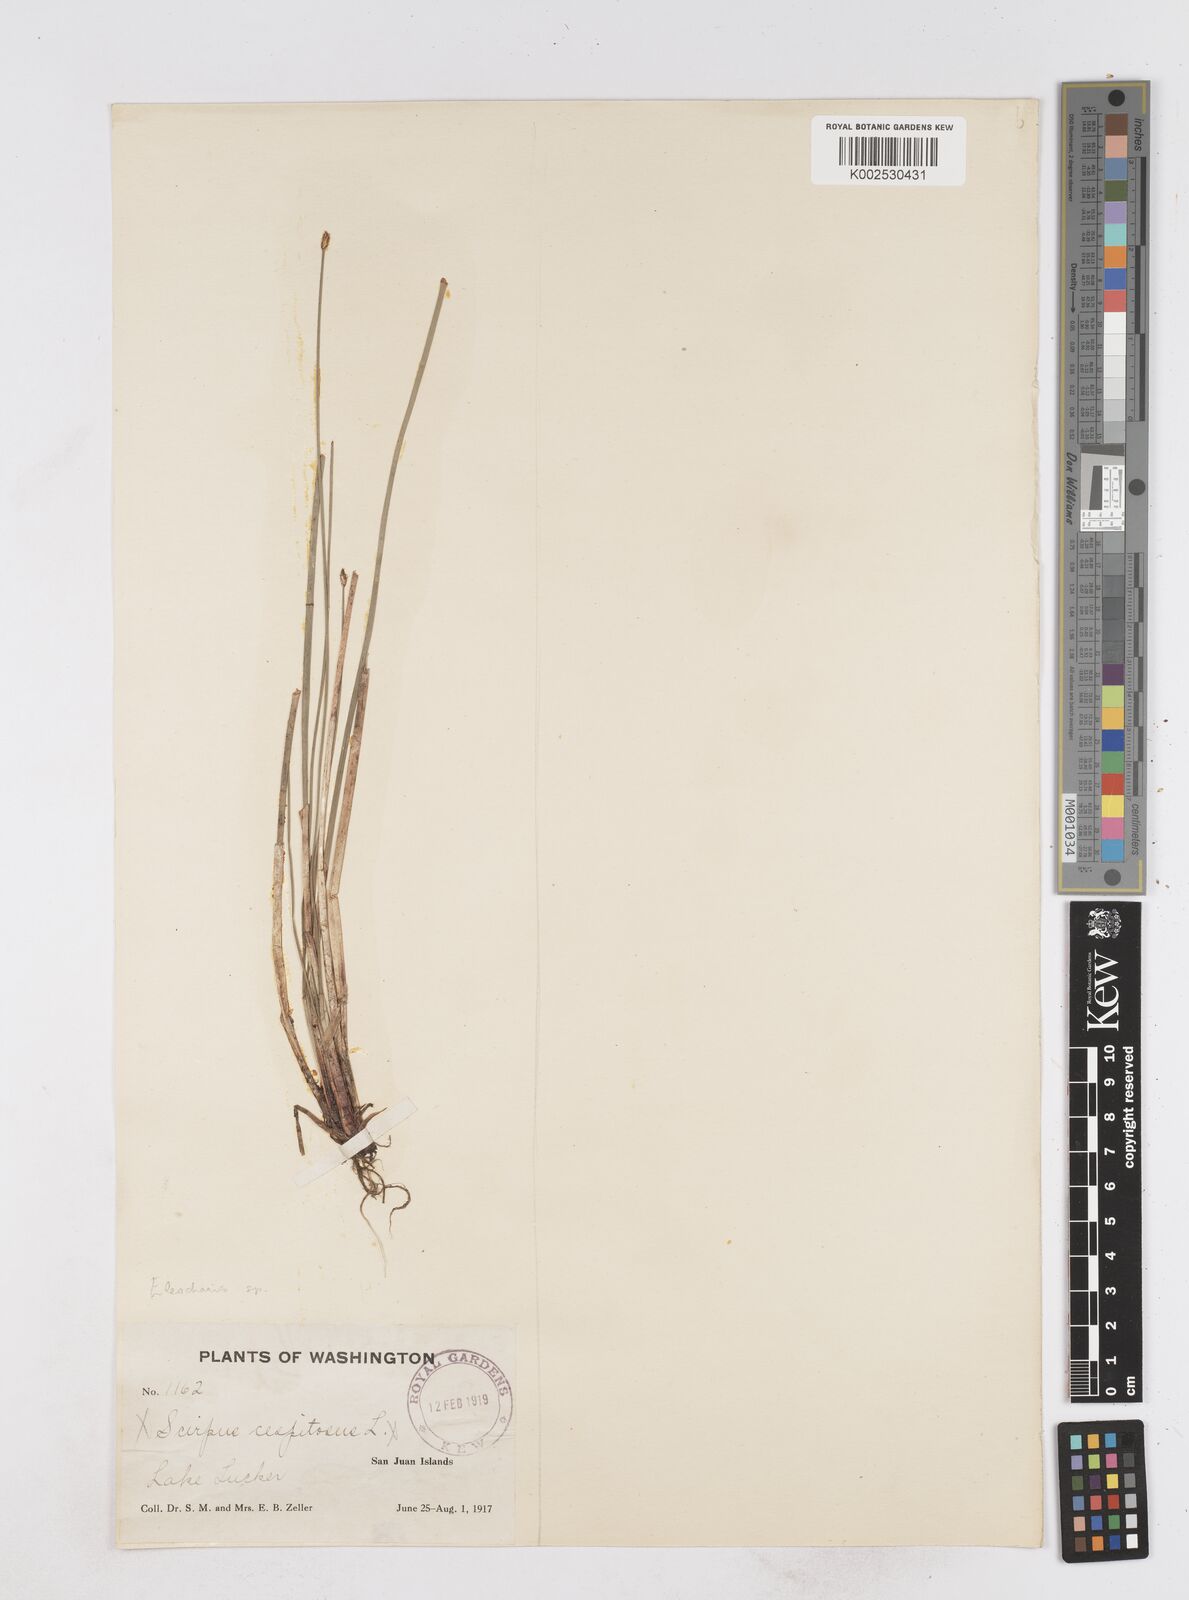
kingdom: Plantae
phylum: Tracheophyta
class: Liliopsida
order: Poales
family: Cyperaceae
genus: Eleocharis
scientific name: Eleocharis
